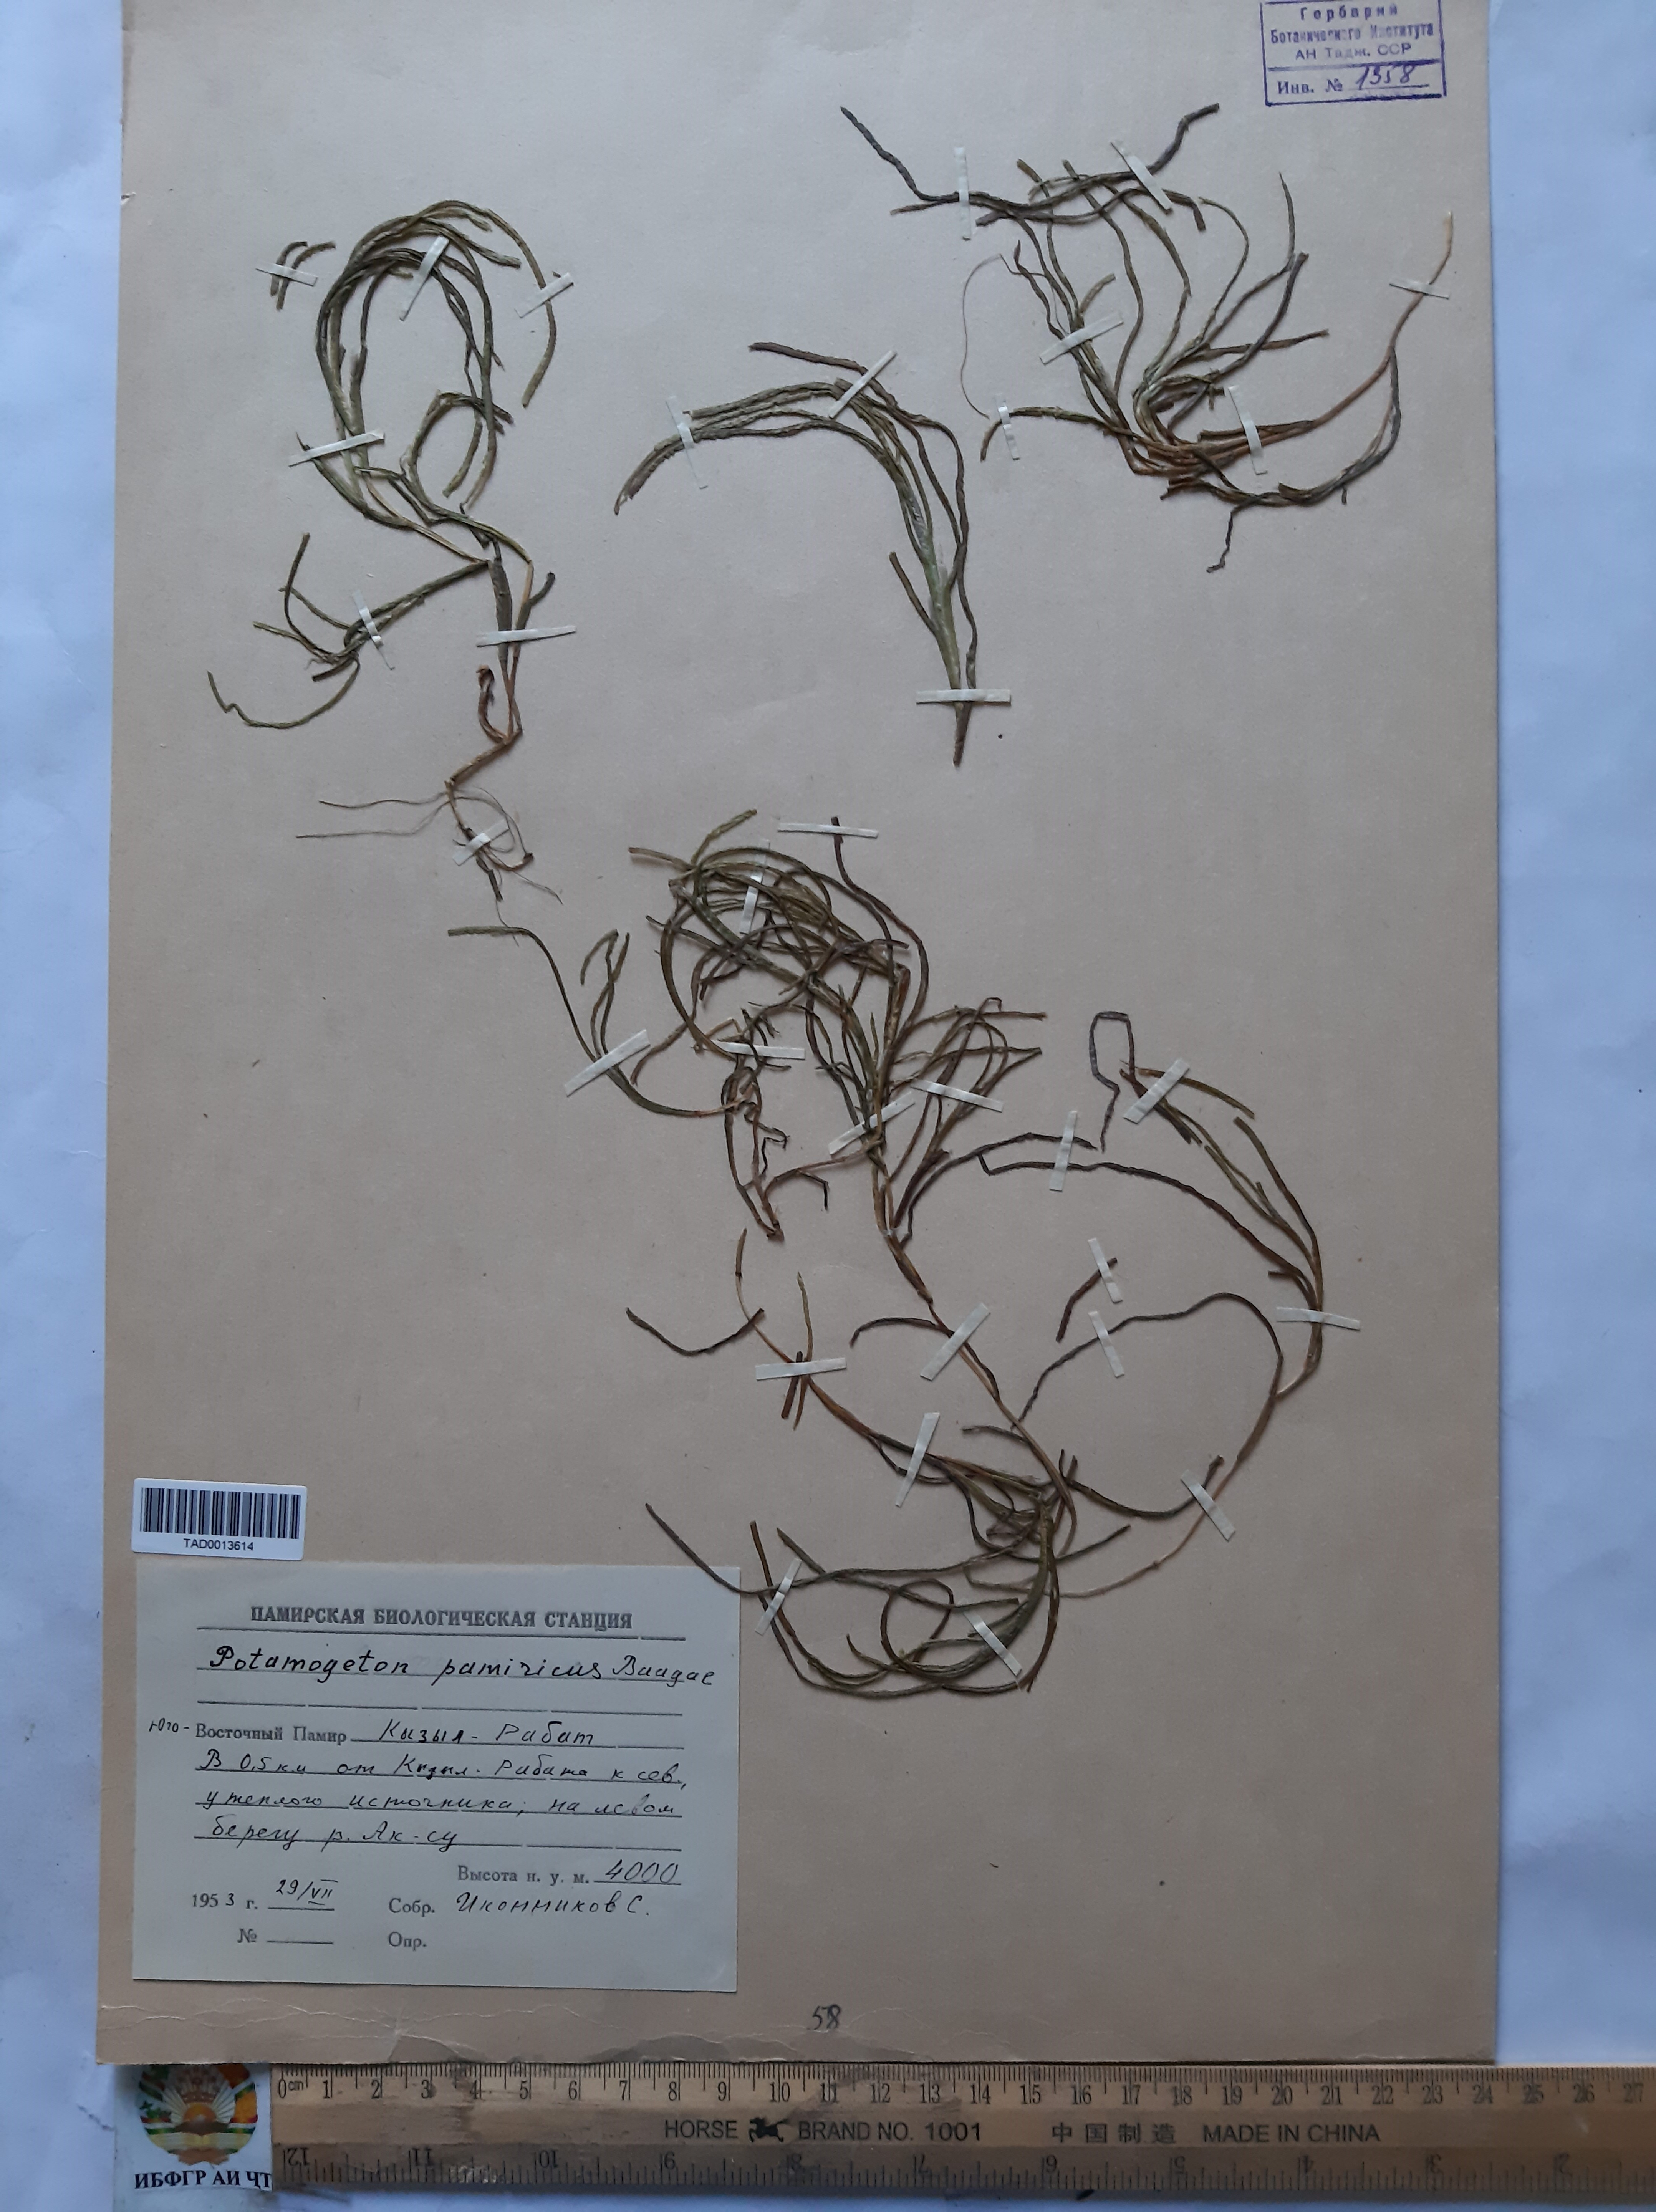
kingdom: Plantae
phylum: Tracheophyta
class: Liliopsida
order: Alismatales
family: Potamogetonaceae
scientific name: Potamogetonaceae
